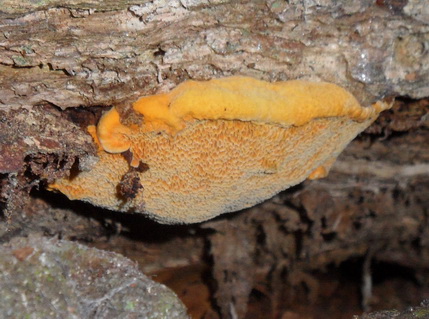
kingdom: Fungi
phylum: Basidiomycota
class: Agaricomycetes
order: Polyporales
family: Phanerochaetaceae
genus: Hapalopilus
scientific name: Hapalopilus croceus
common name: safrangul pragtporesvamp
